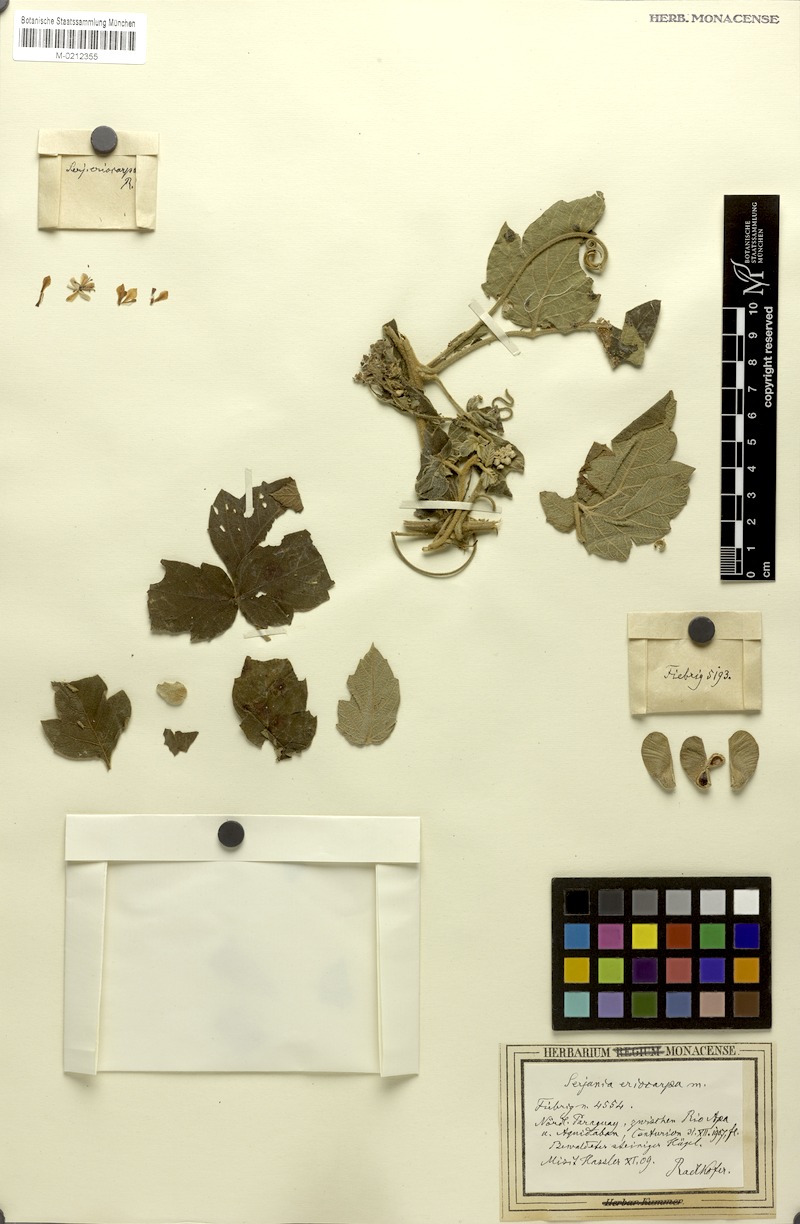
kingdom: Plantae
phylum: Tracheophyta
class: Magnoliopsida
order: Sapindales
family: Sapindaceae
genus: Serjania
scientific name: Serjania eriocarpa
